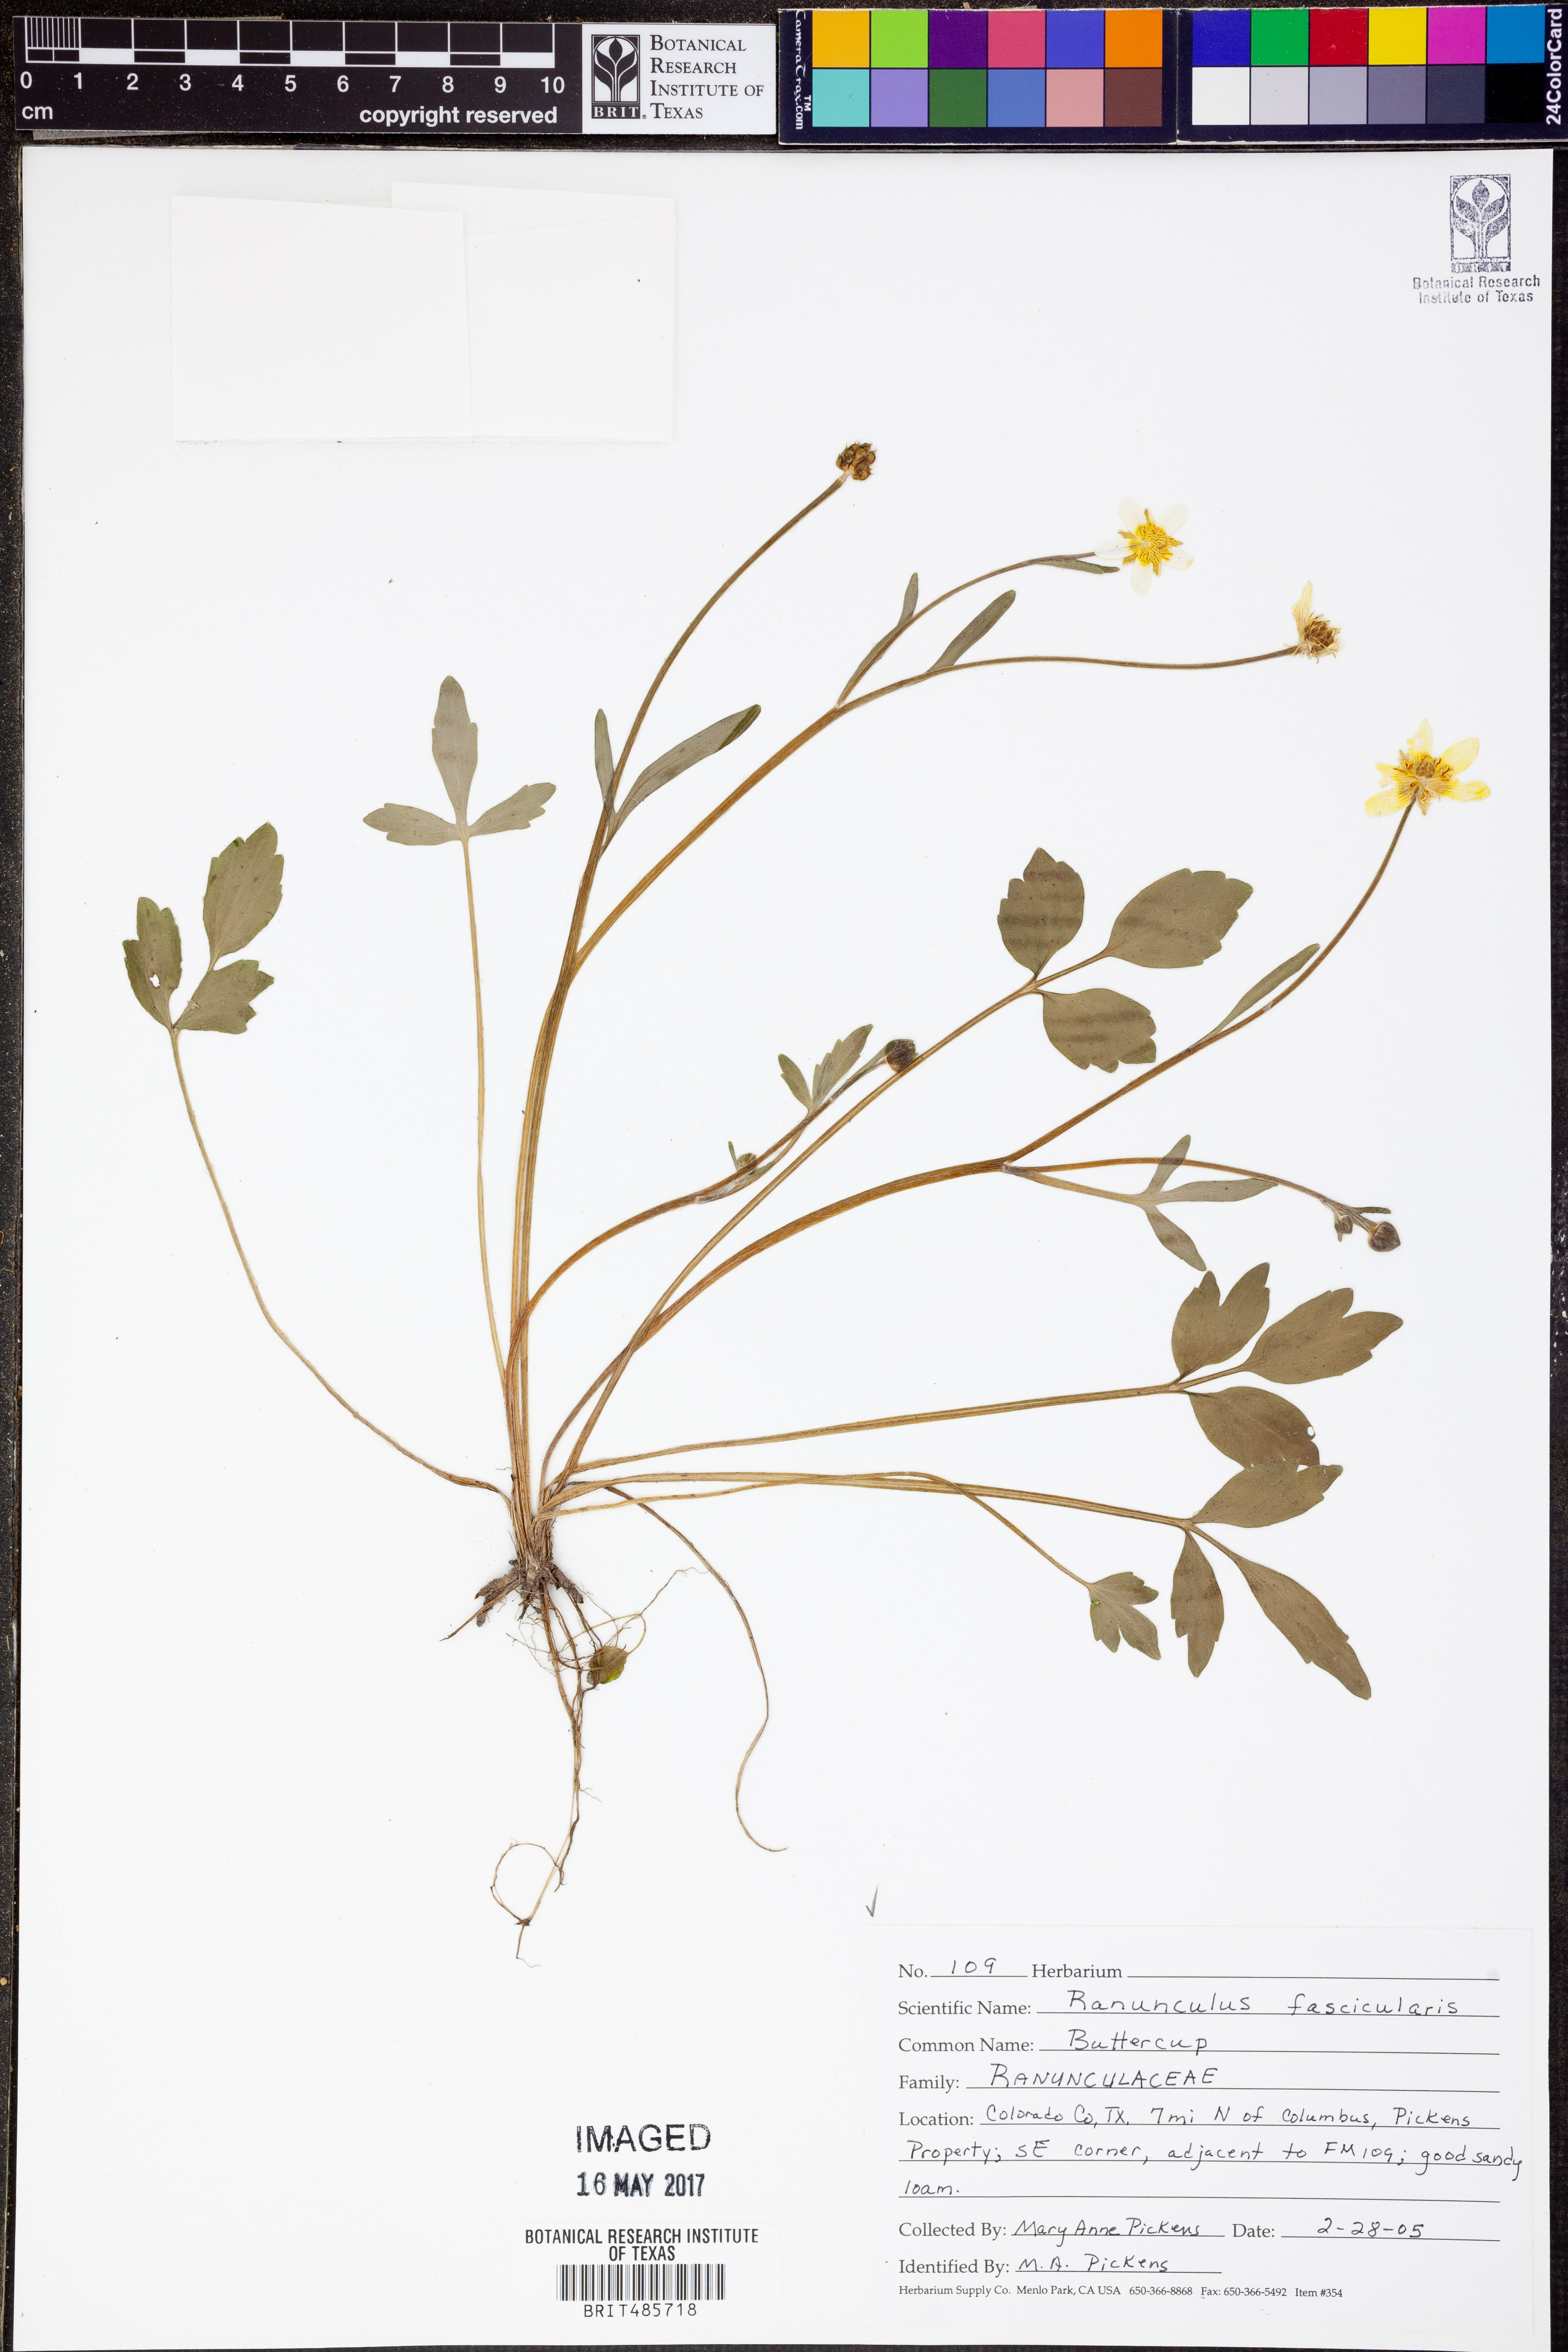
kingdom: Plantae
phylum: Tracheophyta
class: Magnoliopsida
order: Ranunculales
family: Ranunculaceae
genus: Ranunculus
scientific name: Ranunculus fascicularis
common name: Early buttercup
